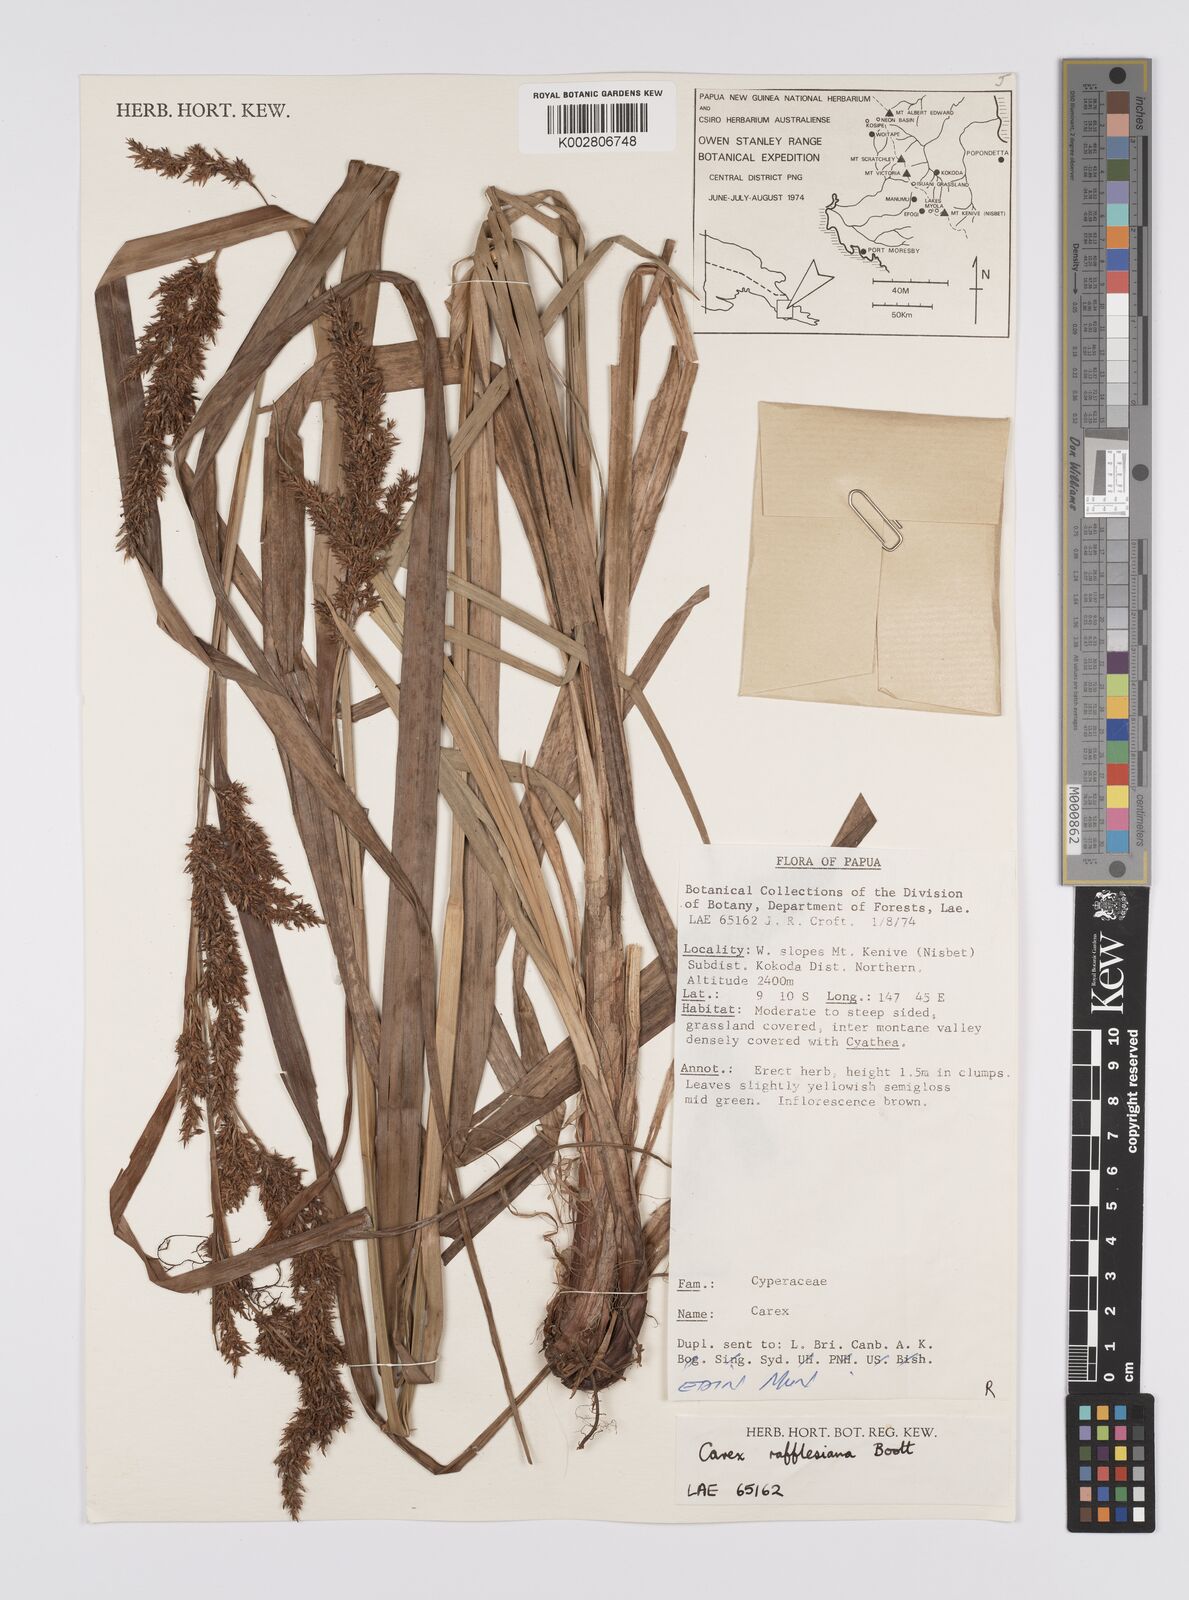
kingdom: Plantae
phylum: Tracheophyta
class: Liliopsida
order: Poales
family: Cyperaceae
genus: Carex
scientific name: Carex rafflesiana
